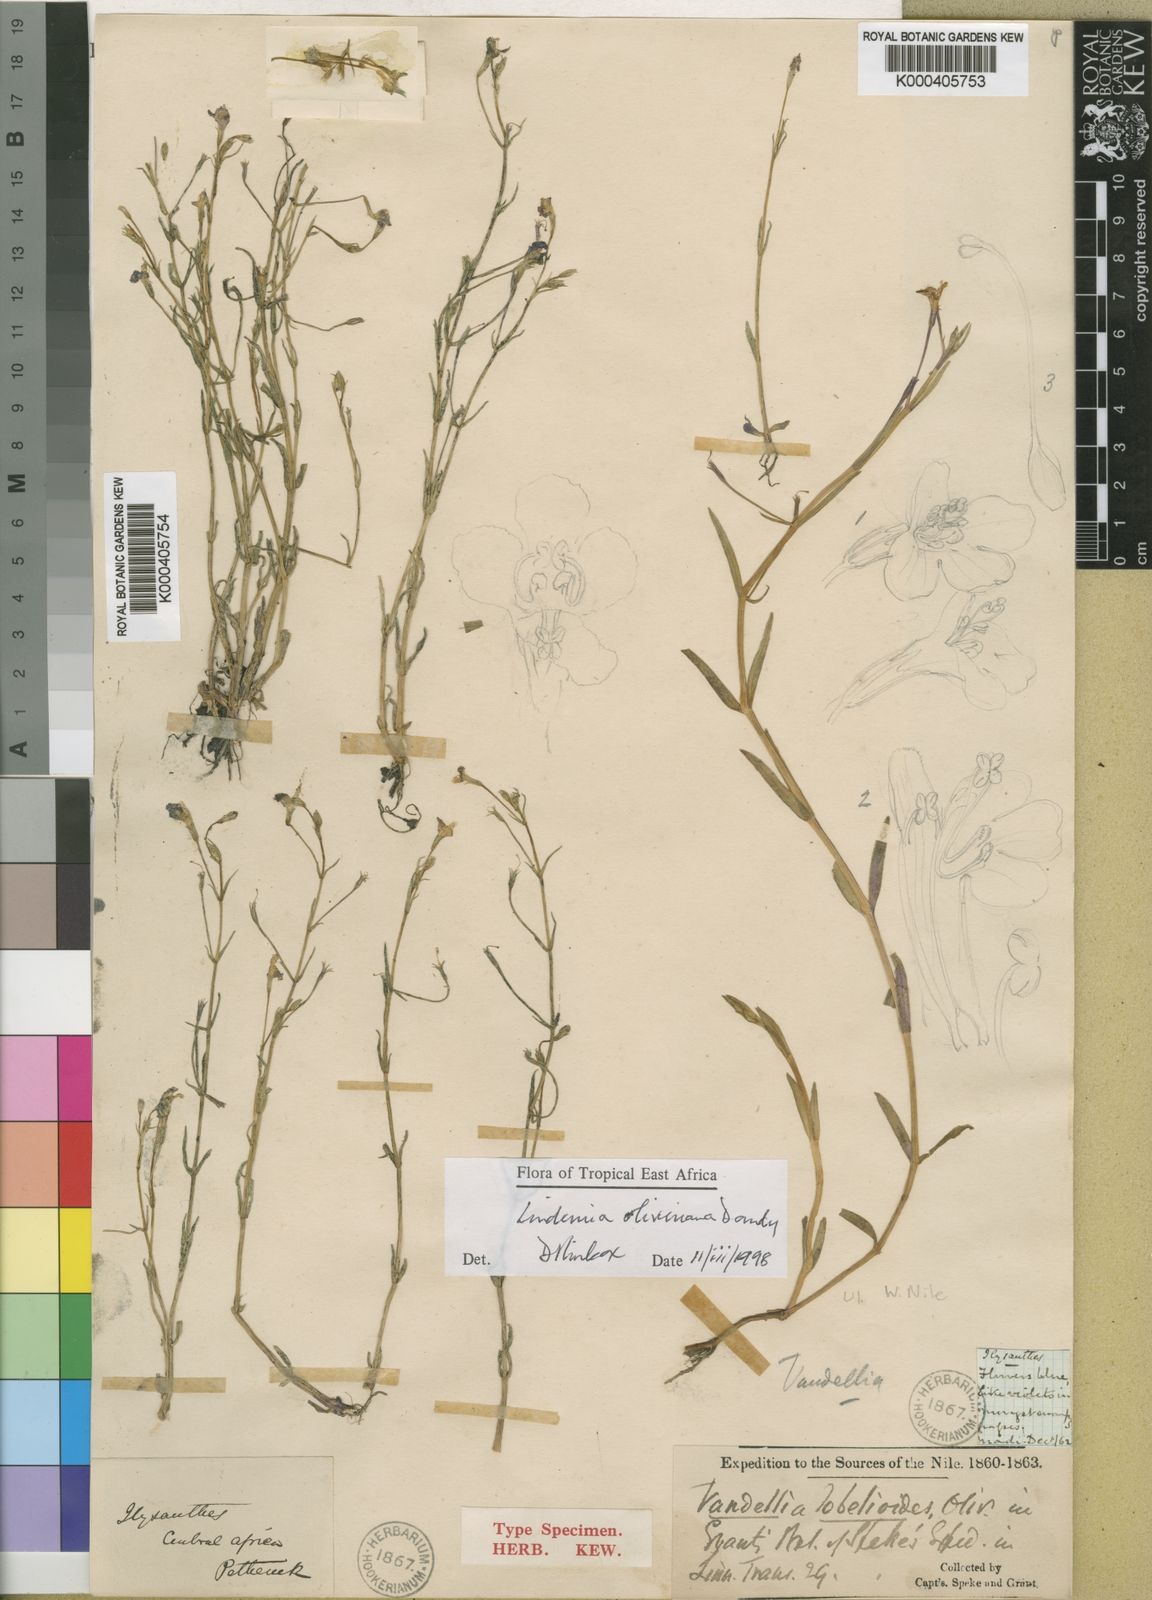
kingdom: Plantae
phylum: Tracheophyta
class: Magnoliopsida
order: Lamiales
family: Linderniaceae
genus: Craterostigma
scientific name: Craterostigma newtonii
